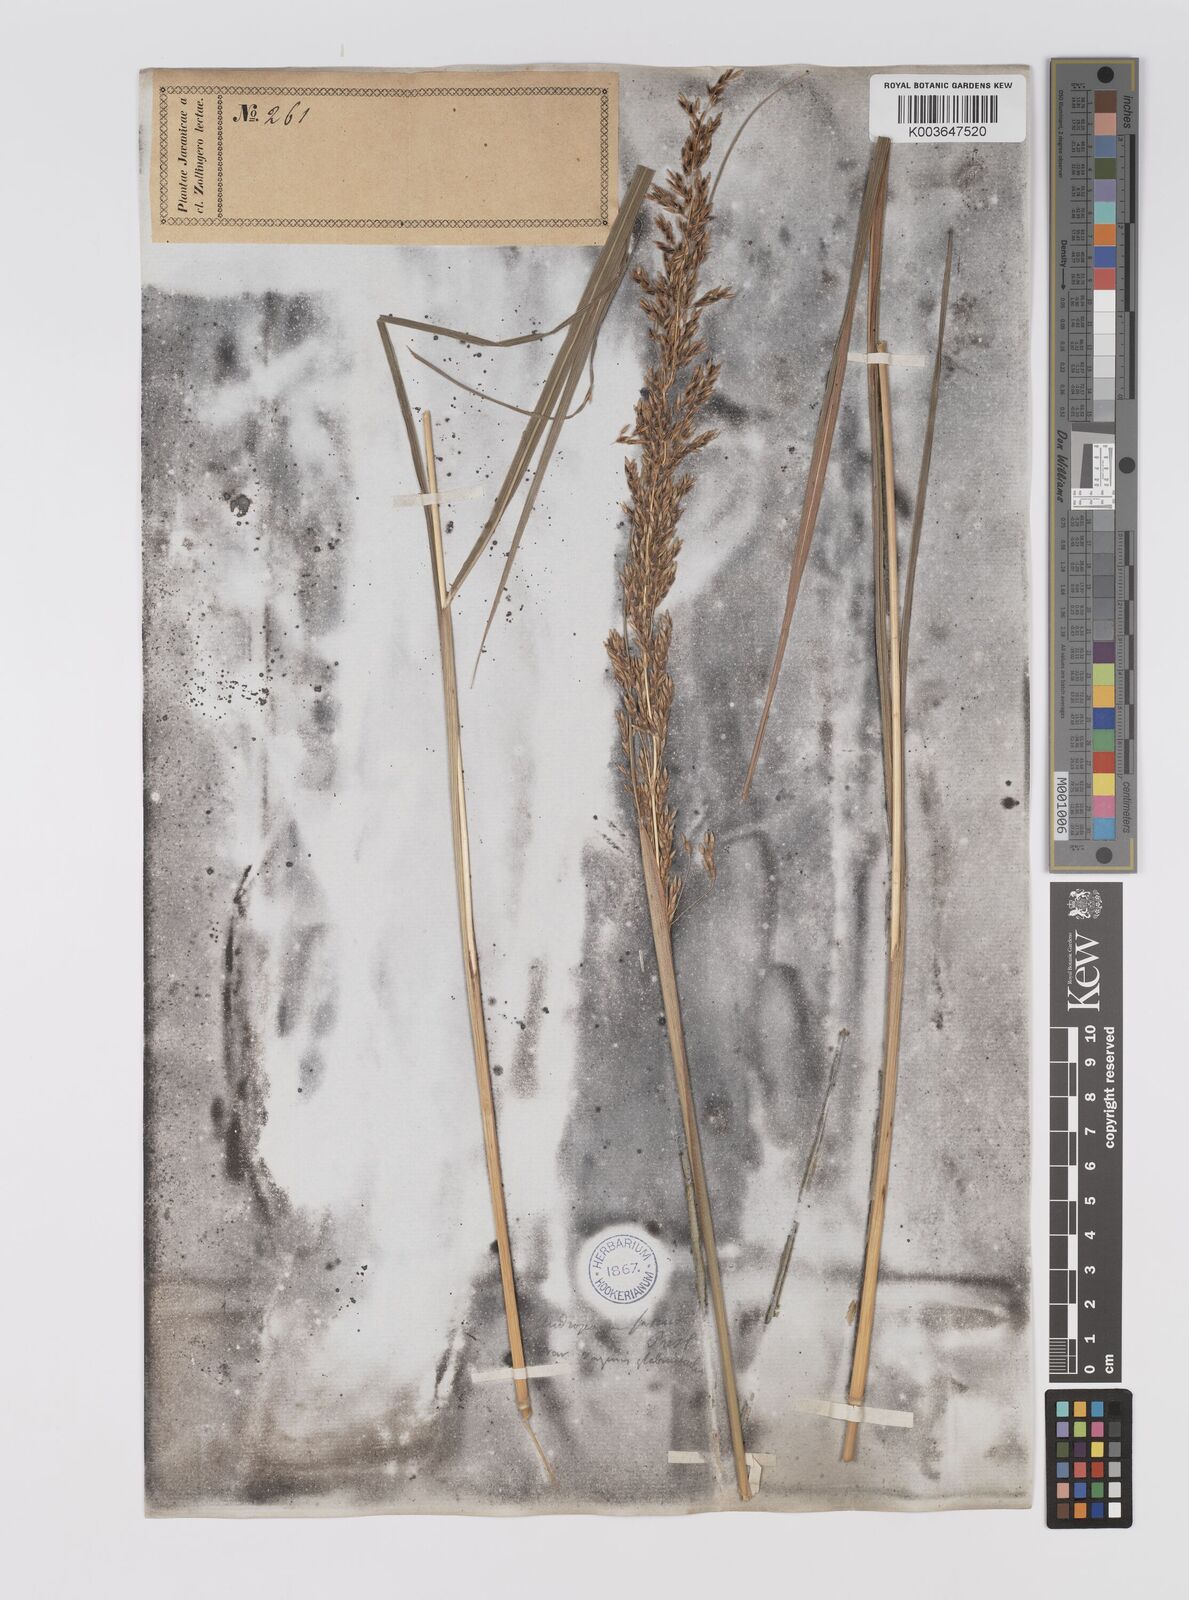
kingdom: Plantae
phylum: Tracheophyta
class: Liliopsida
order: Poales
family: Poaceae
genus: Sorghum
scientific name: Sorghum nitidum
